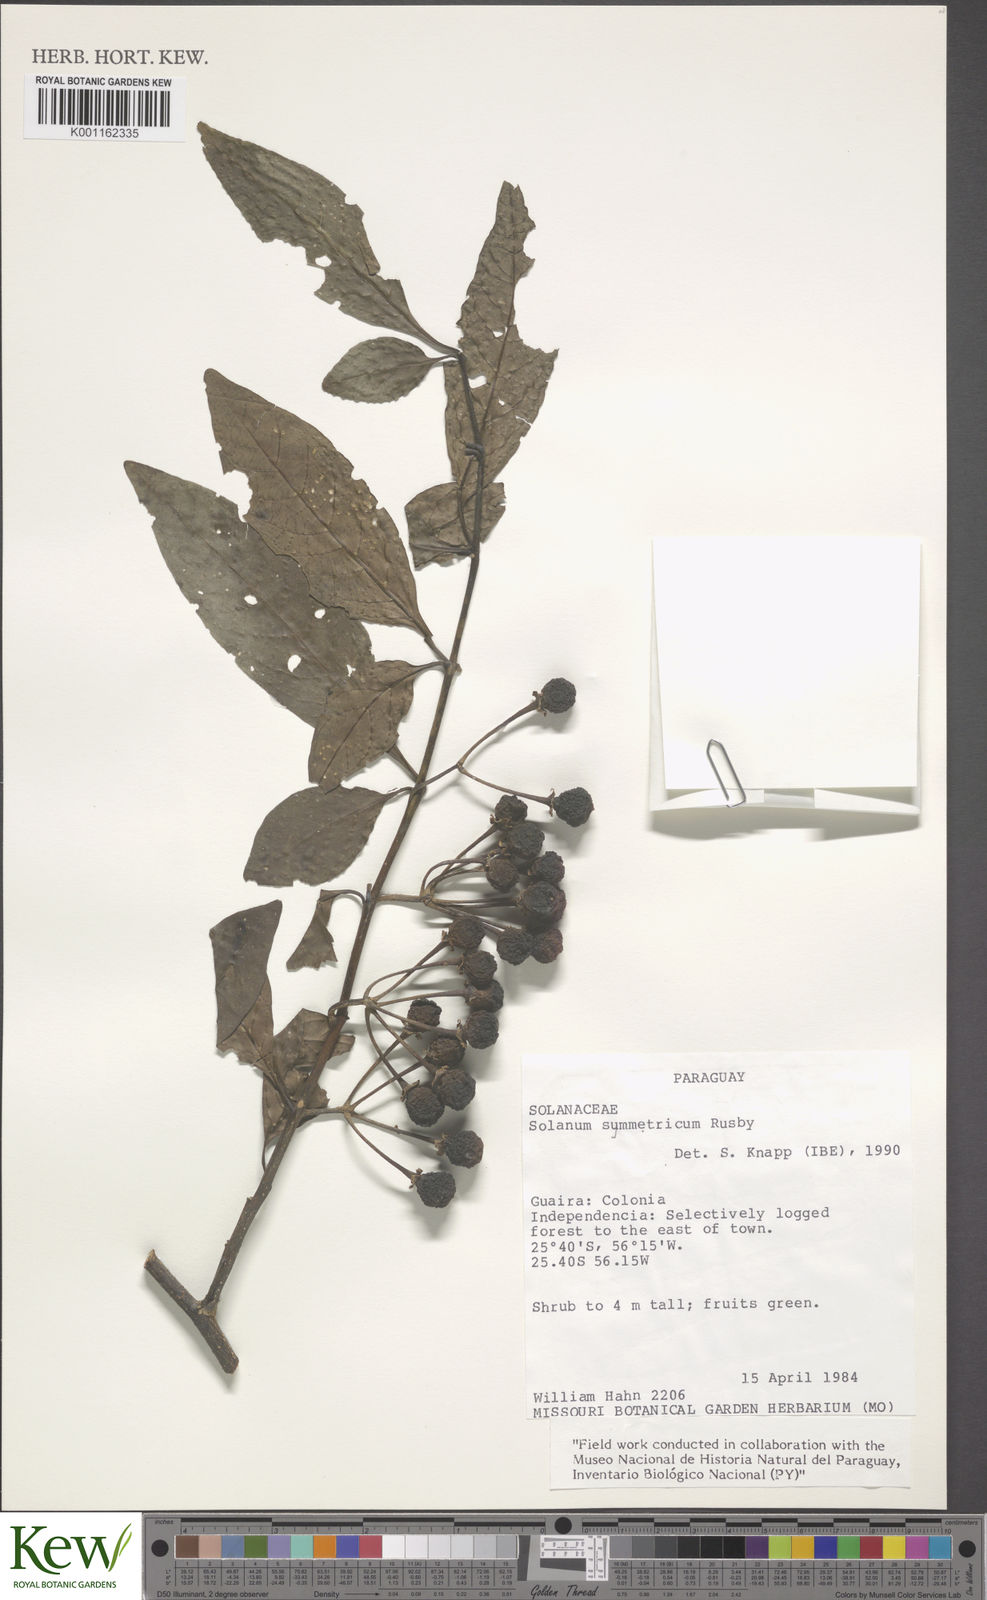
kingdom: Plantae
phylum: Tracheophyta
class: Magnoliopsida
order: Solanales
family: Solanaceae
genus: Solanum
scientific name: Solanum symmetricum
